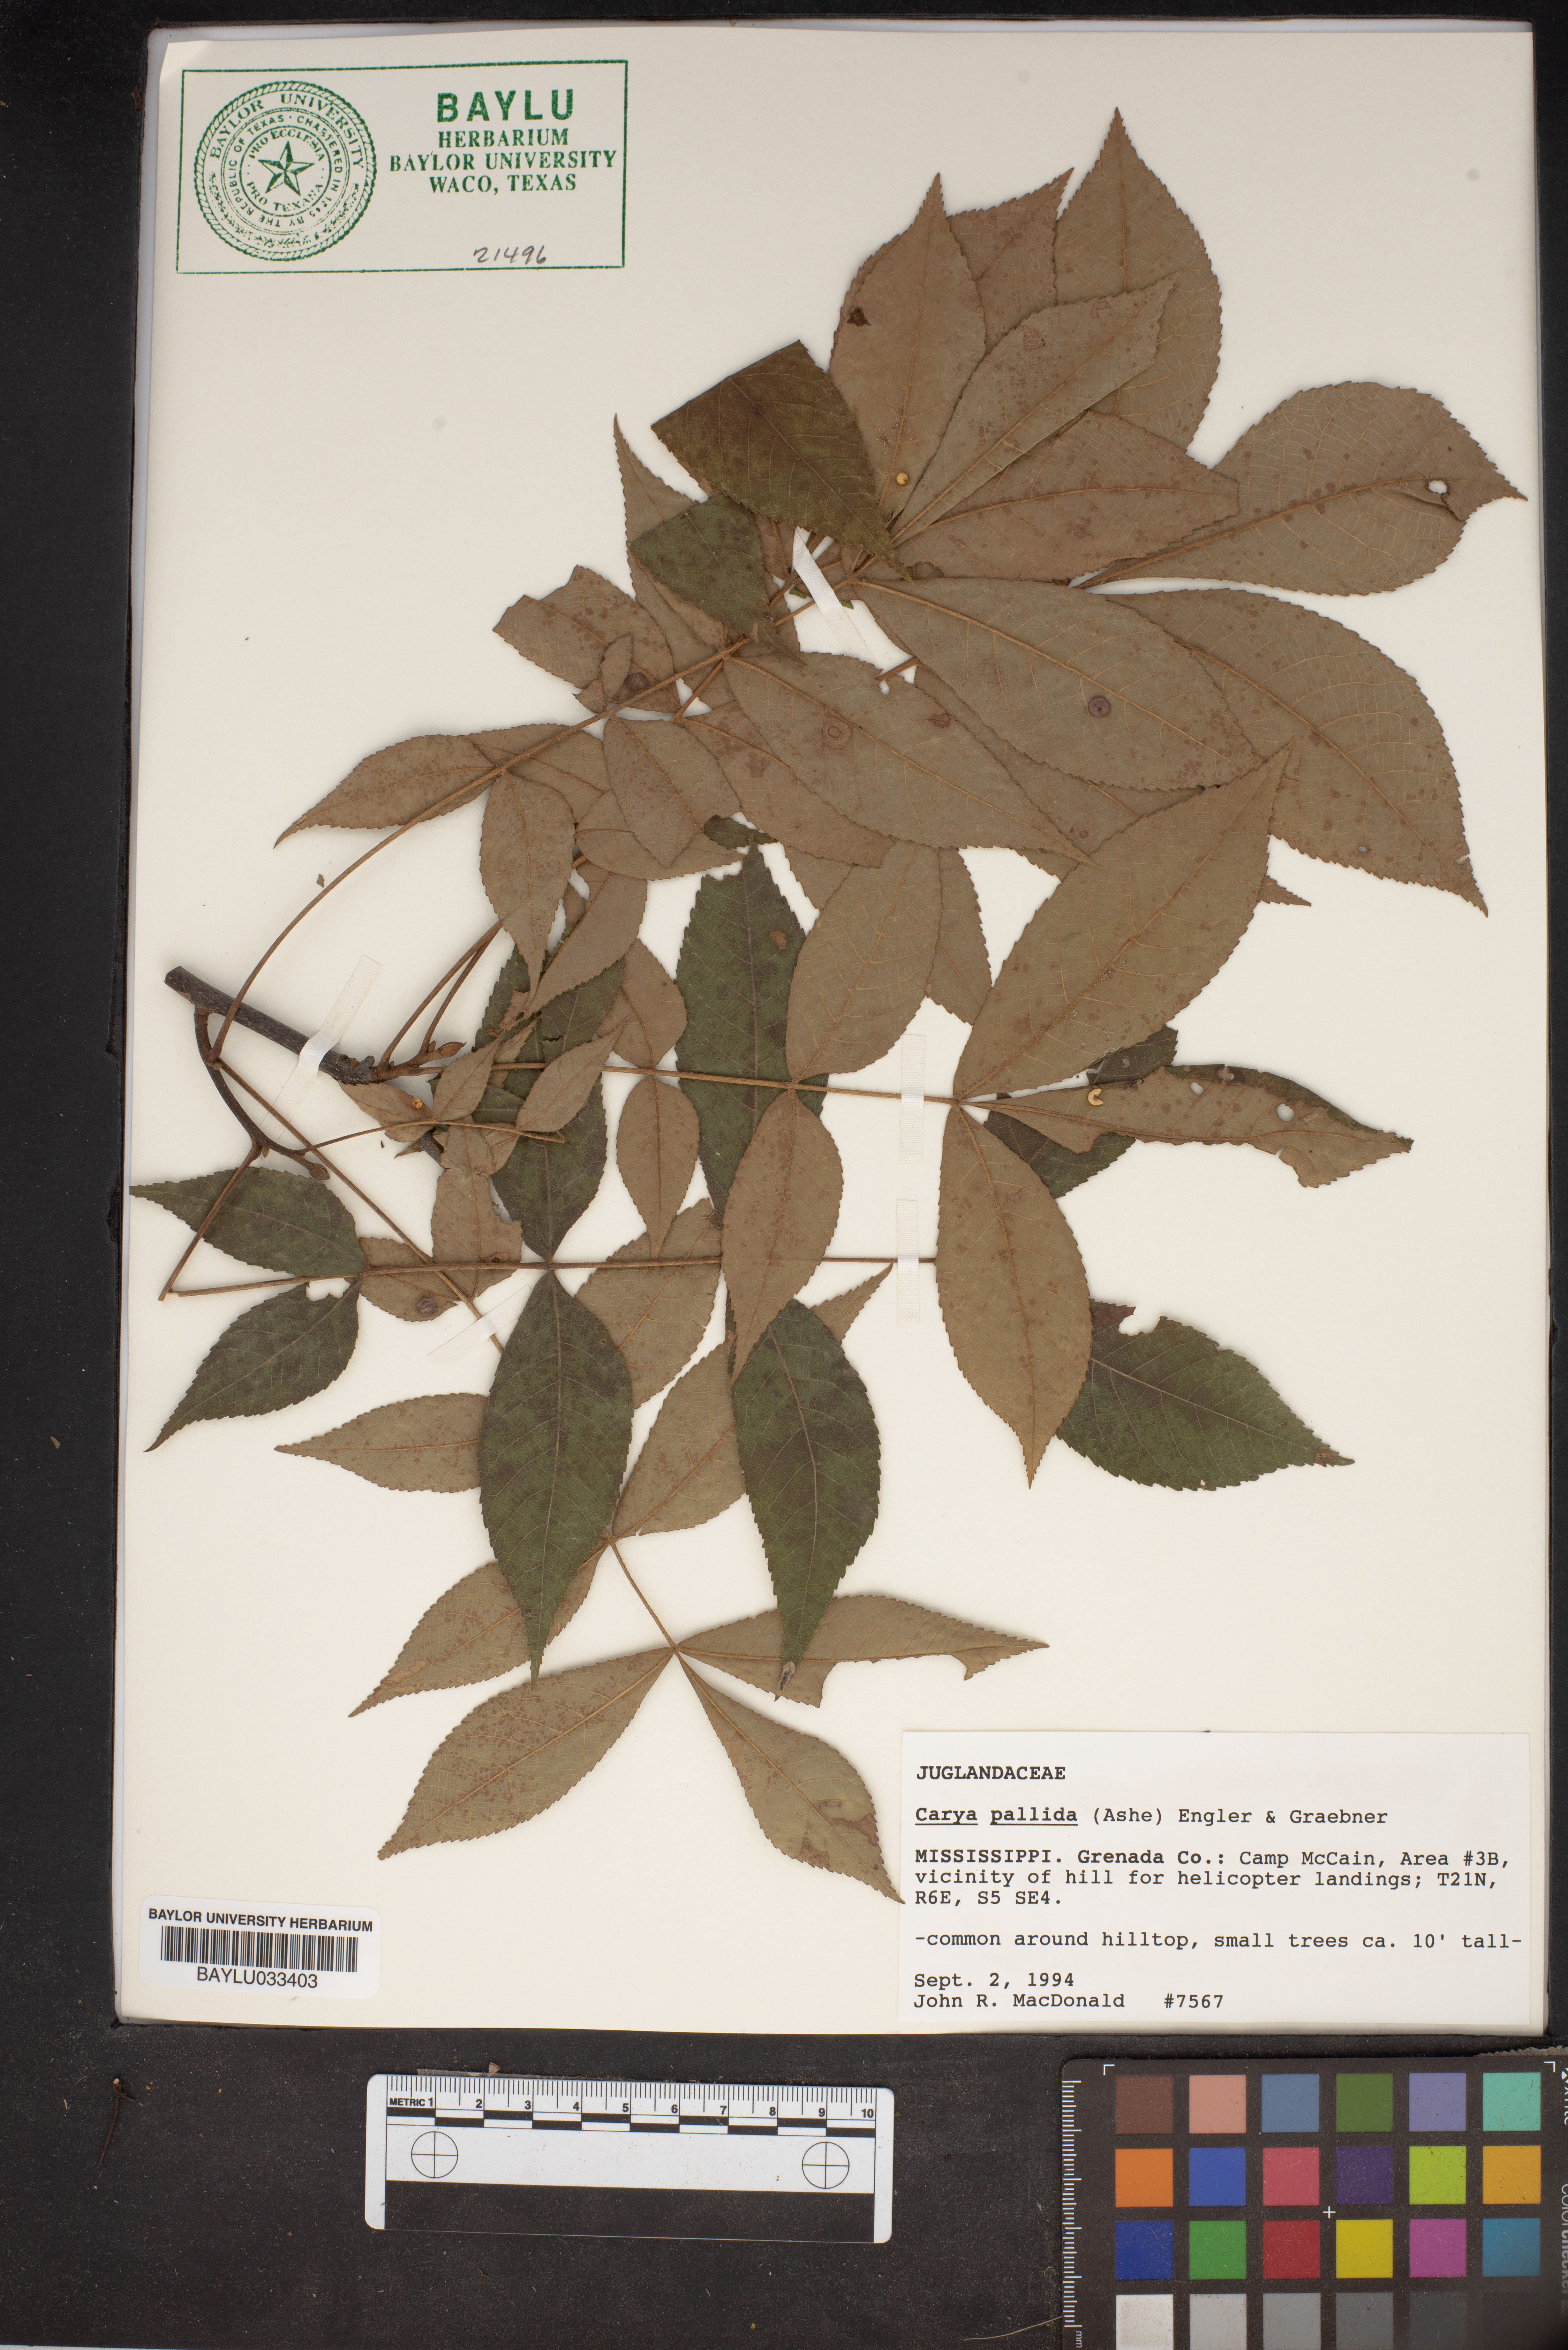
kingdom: Plantae
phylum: Tracheophyta
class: Magnoliopsida
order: Fagales
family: Juglandaceae
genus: Carya
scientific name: Carya pallida
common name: Sand hickory
